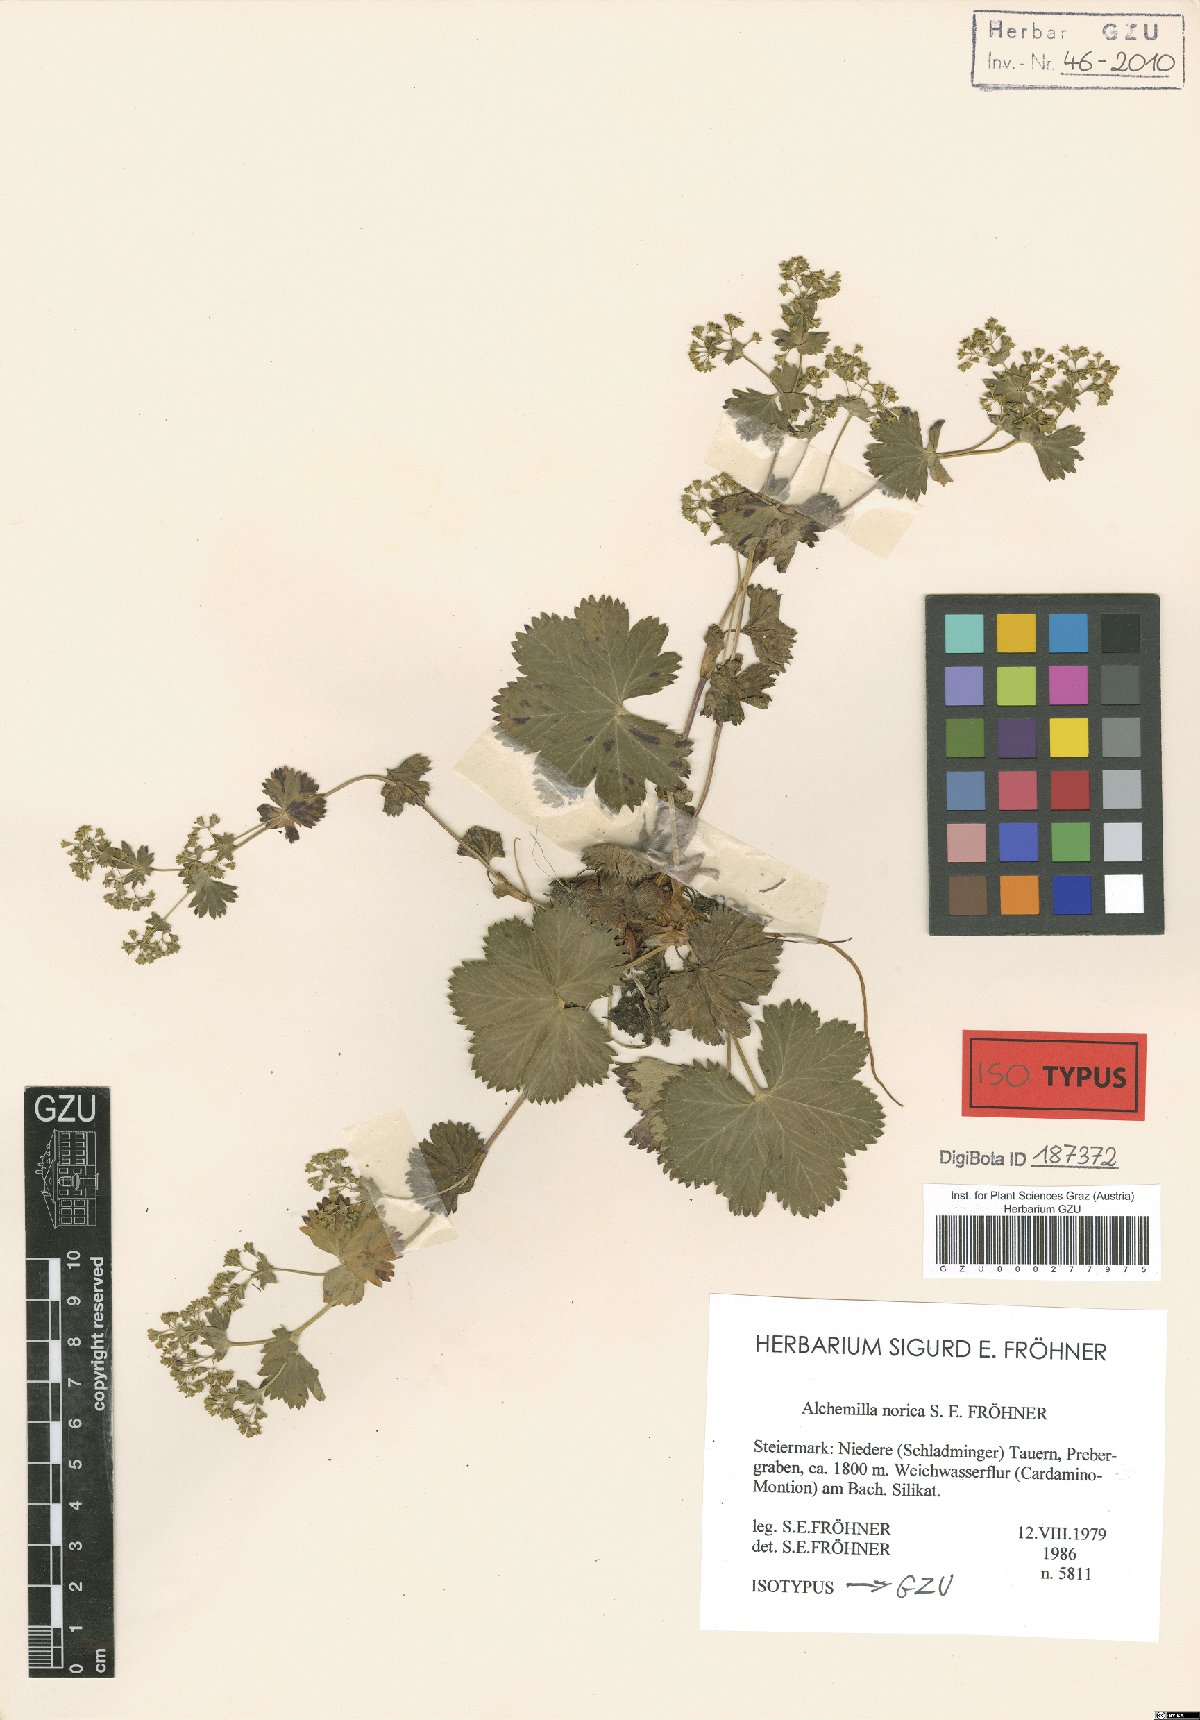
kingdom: Plantae
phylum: Tracheophyta
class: Magnoliopsida
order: Rosales
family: Rosaceae
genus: Alchemilla
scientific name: Alchemilla norica
